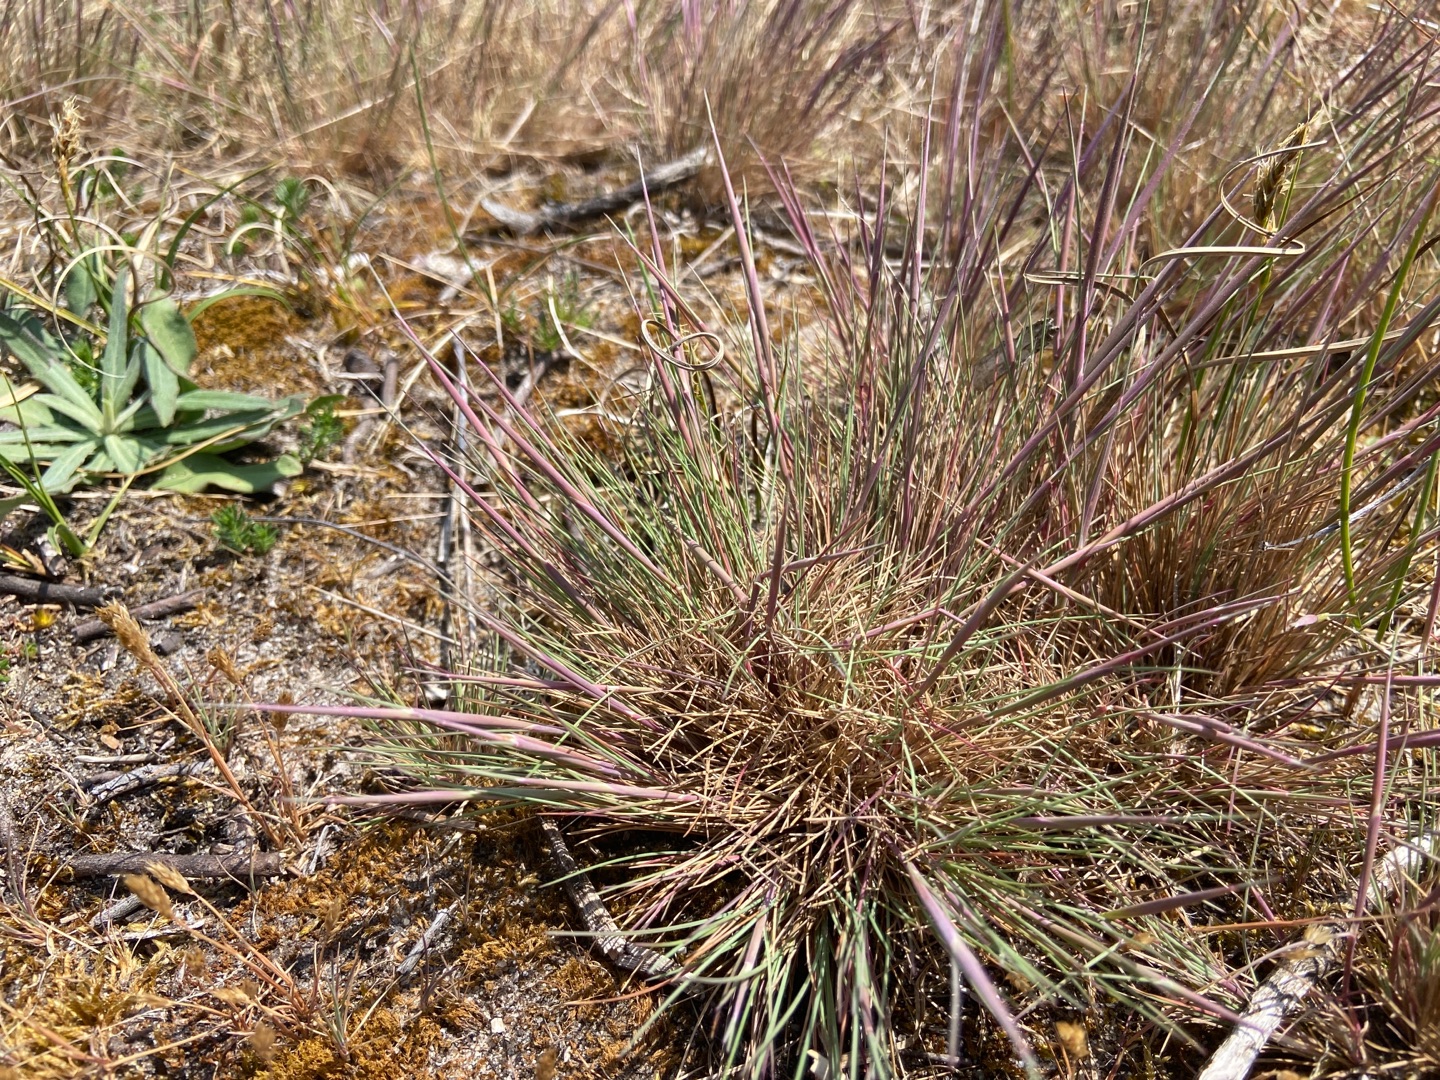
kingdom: Plantae
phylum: Tracheophyta
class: Liliopsida
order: Poales
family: Poaceae
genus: Corynephorus
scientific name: Corynephorus canescens
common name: Sandskæg
